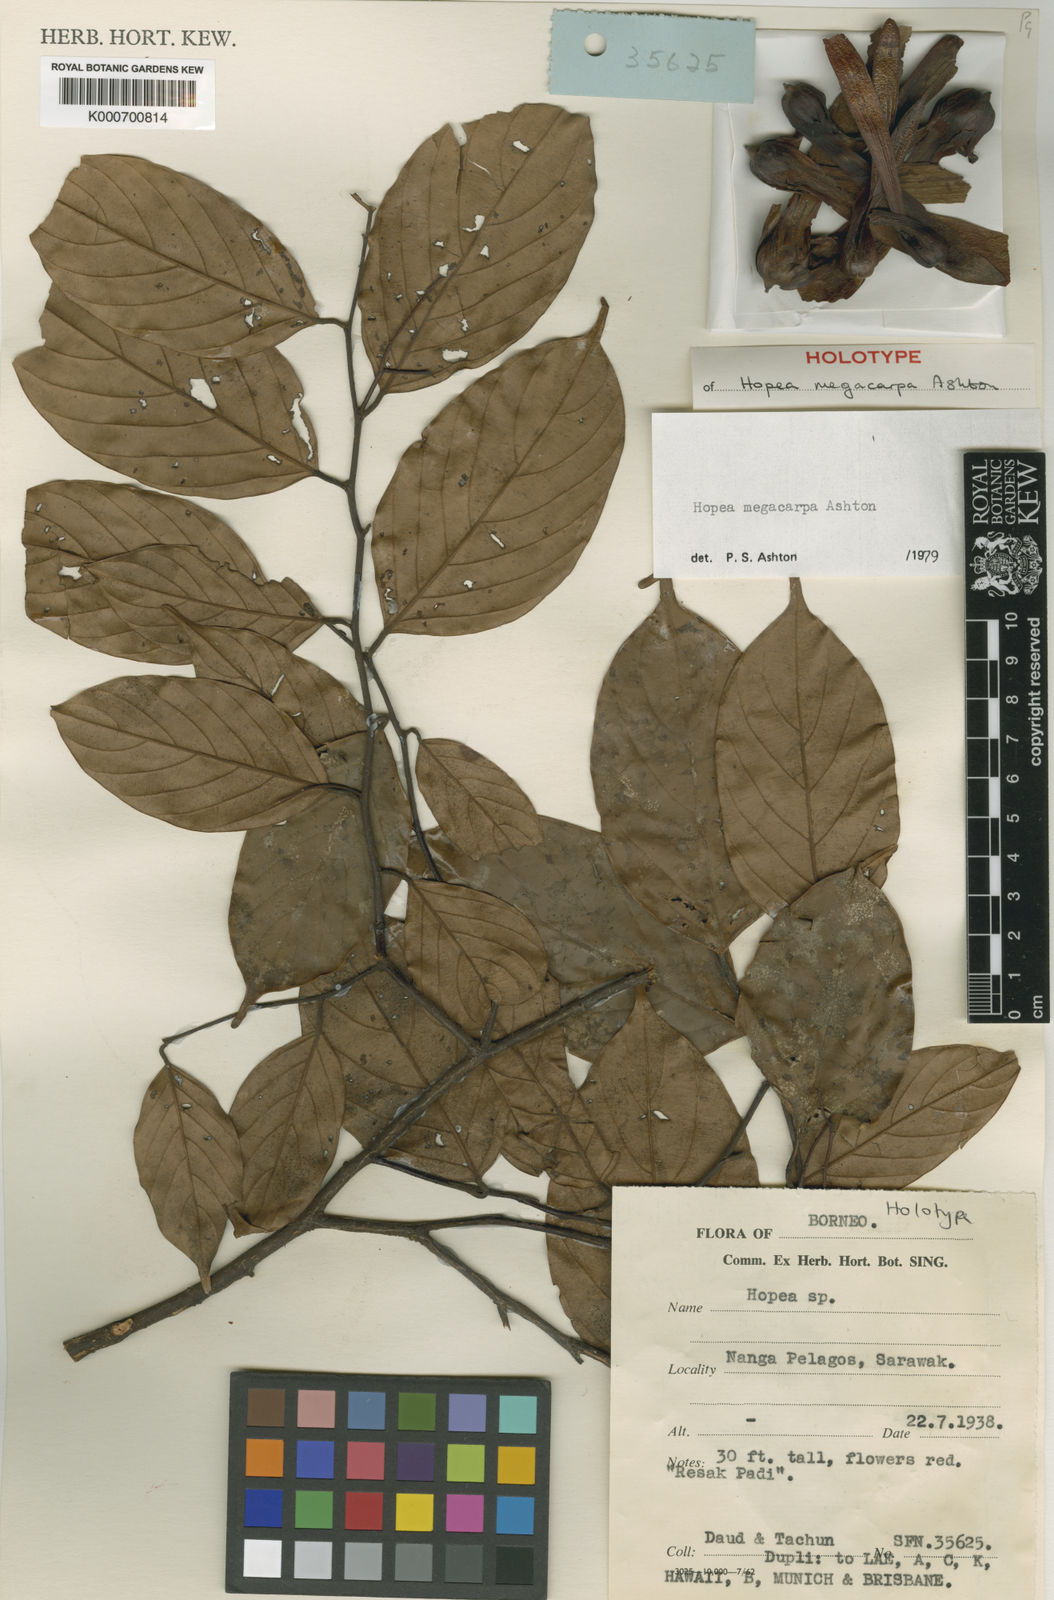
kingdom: Plantae
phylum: Tracheophyta
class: Magnoliopsida
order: Malvales
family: Dipterocarpaceae
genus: Hopea
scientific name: Hopea megacarpa
